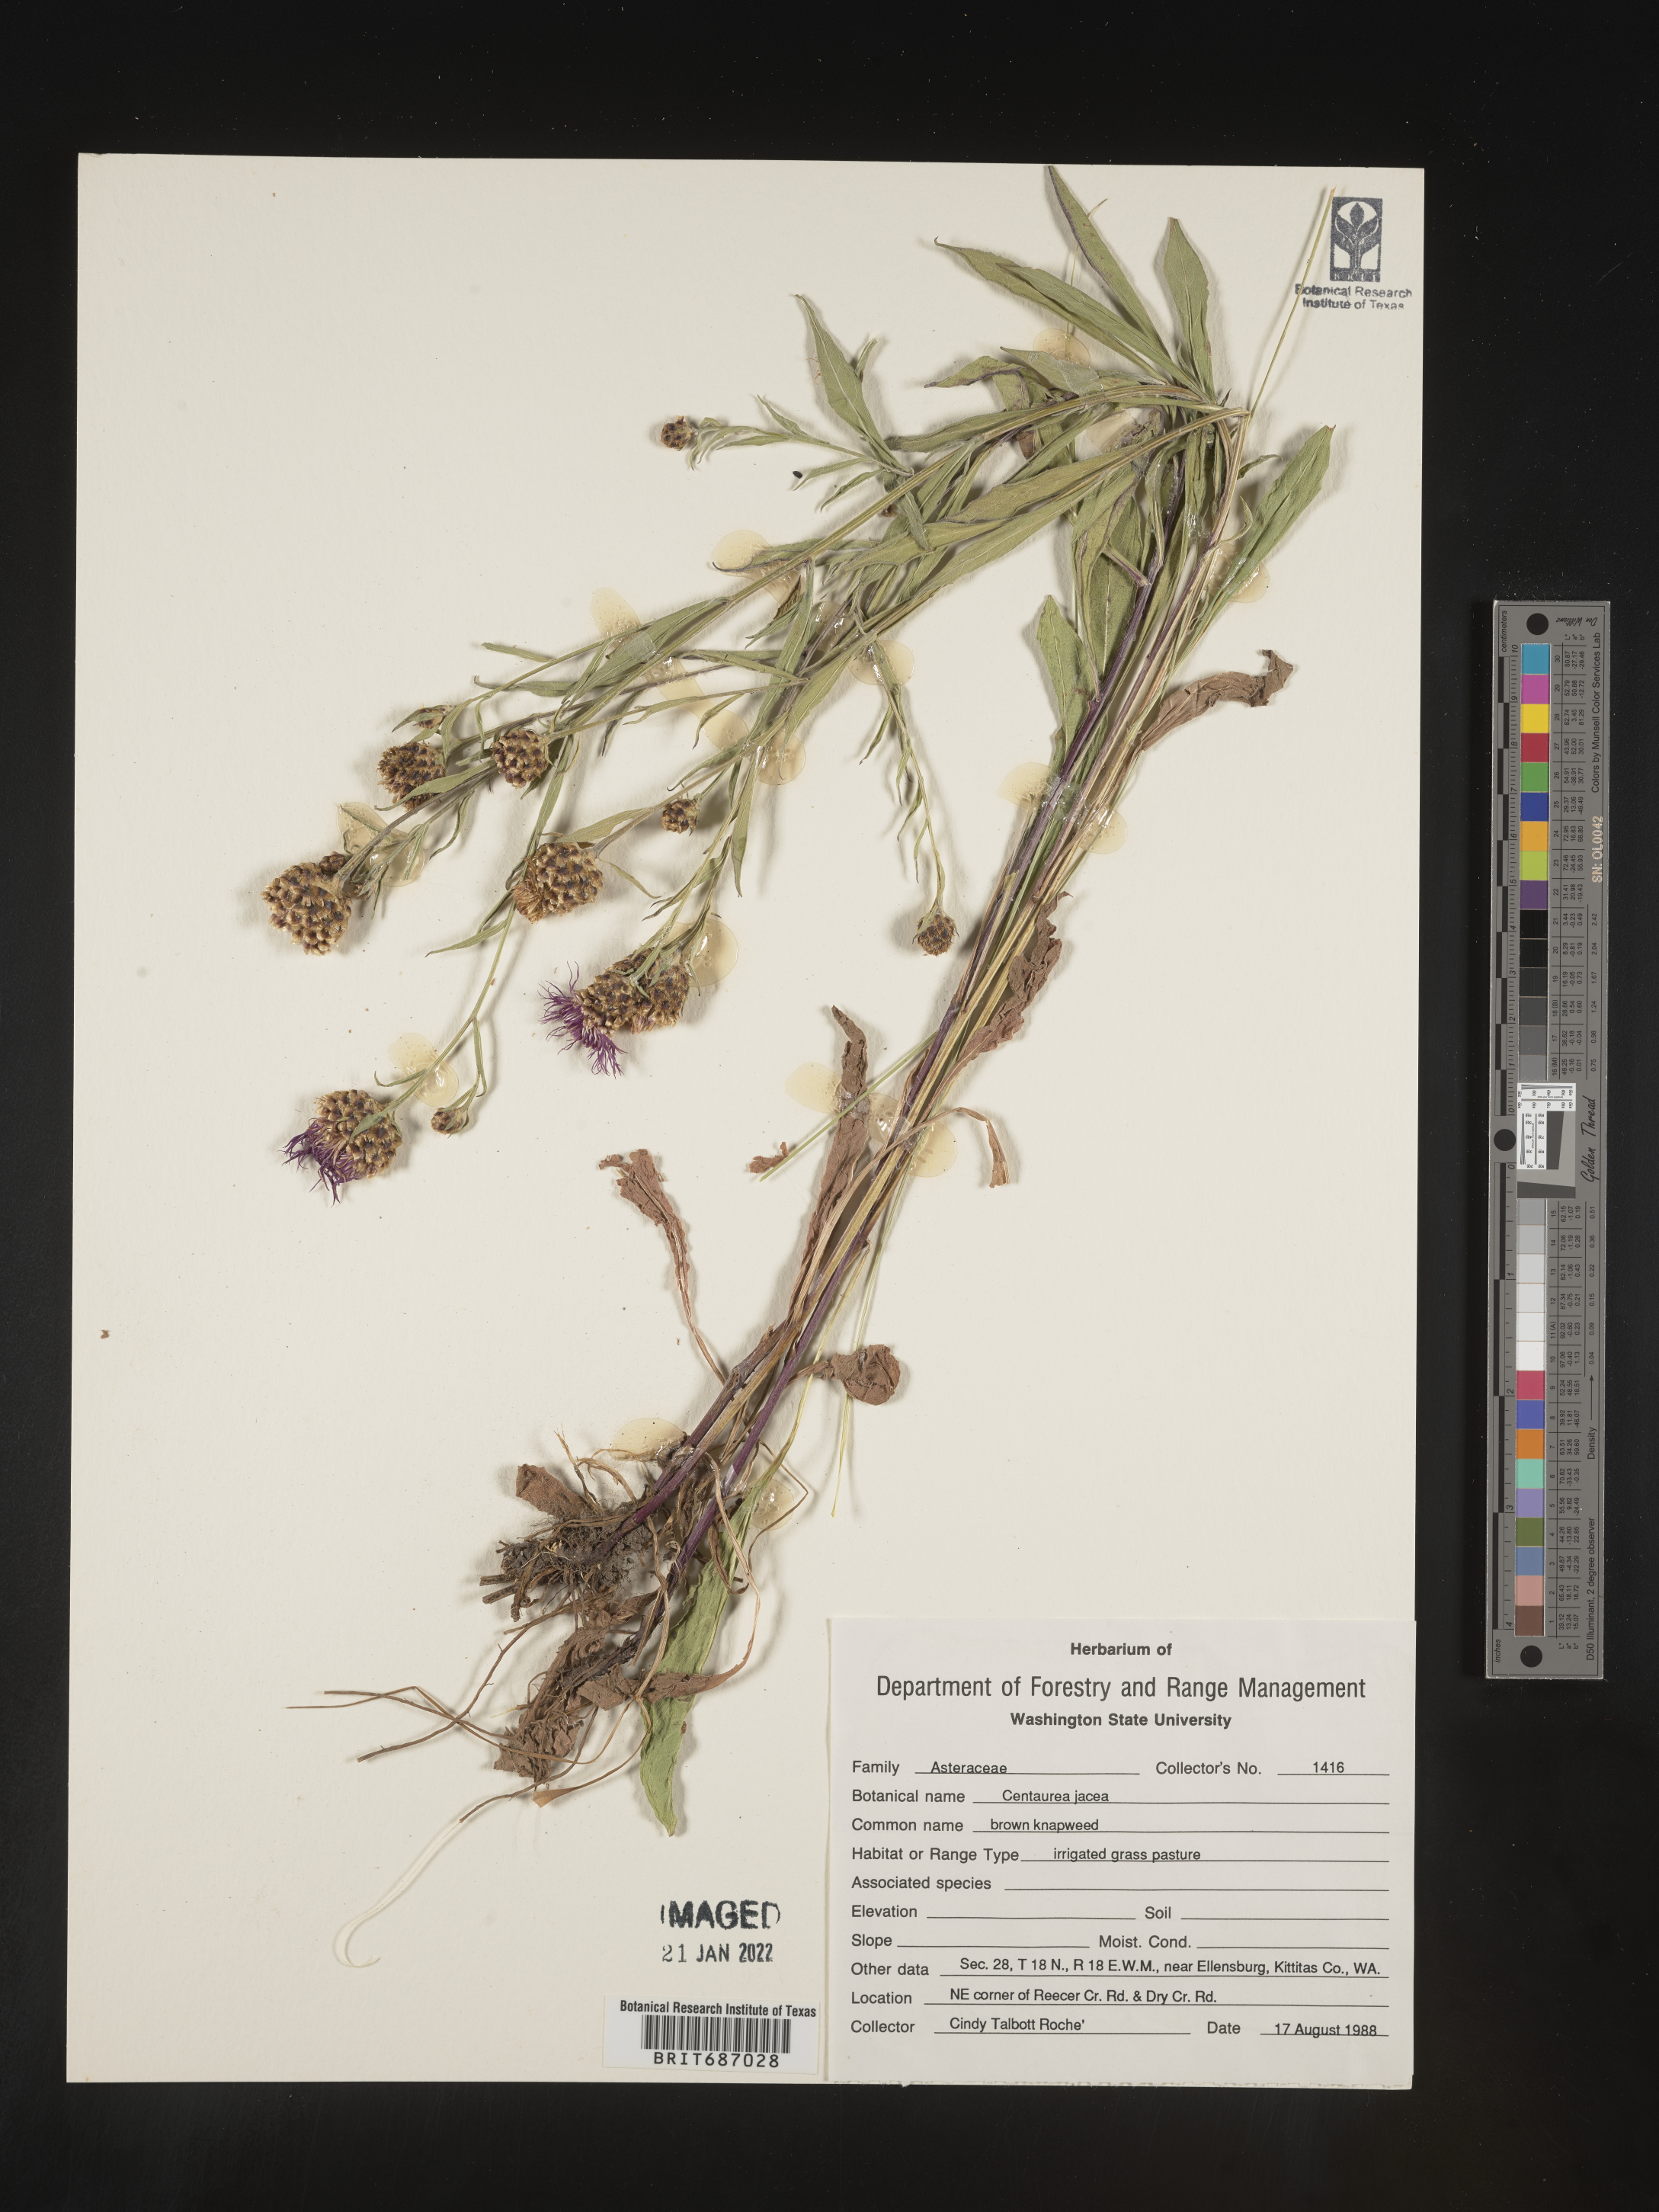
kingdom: Plantae
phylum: Tracheophyta
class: Magnoliopsida
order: Asterales
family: Asteraceae
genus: Centaurea
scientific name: Centaurea jacea
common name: Brown knapweed
